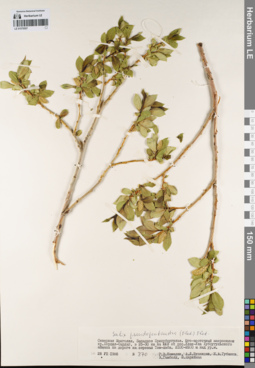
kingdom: Plantae
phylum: Tracheophyta
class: Magnoliopsida
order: Malpighiales
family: Salicaceae
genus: Salix
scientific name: Salix pseudopentandra
